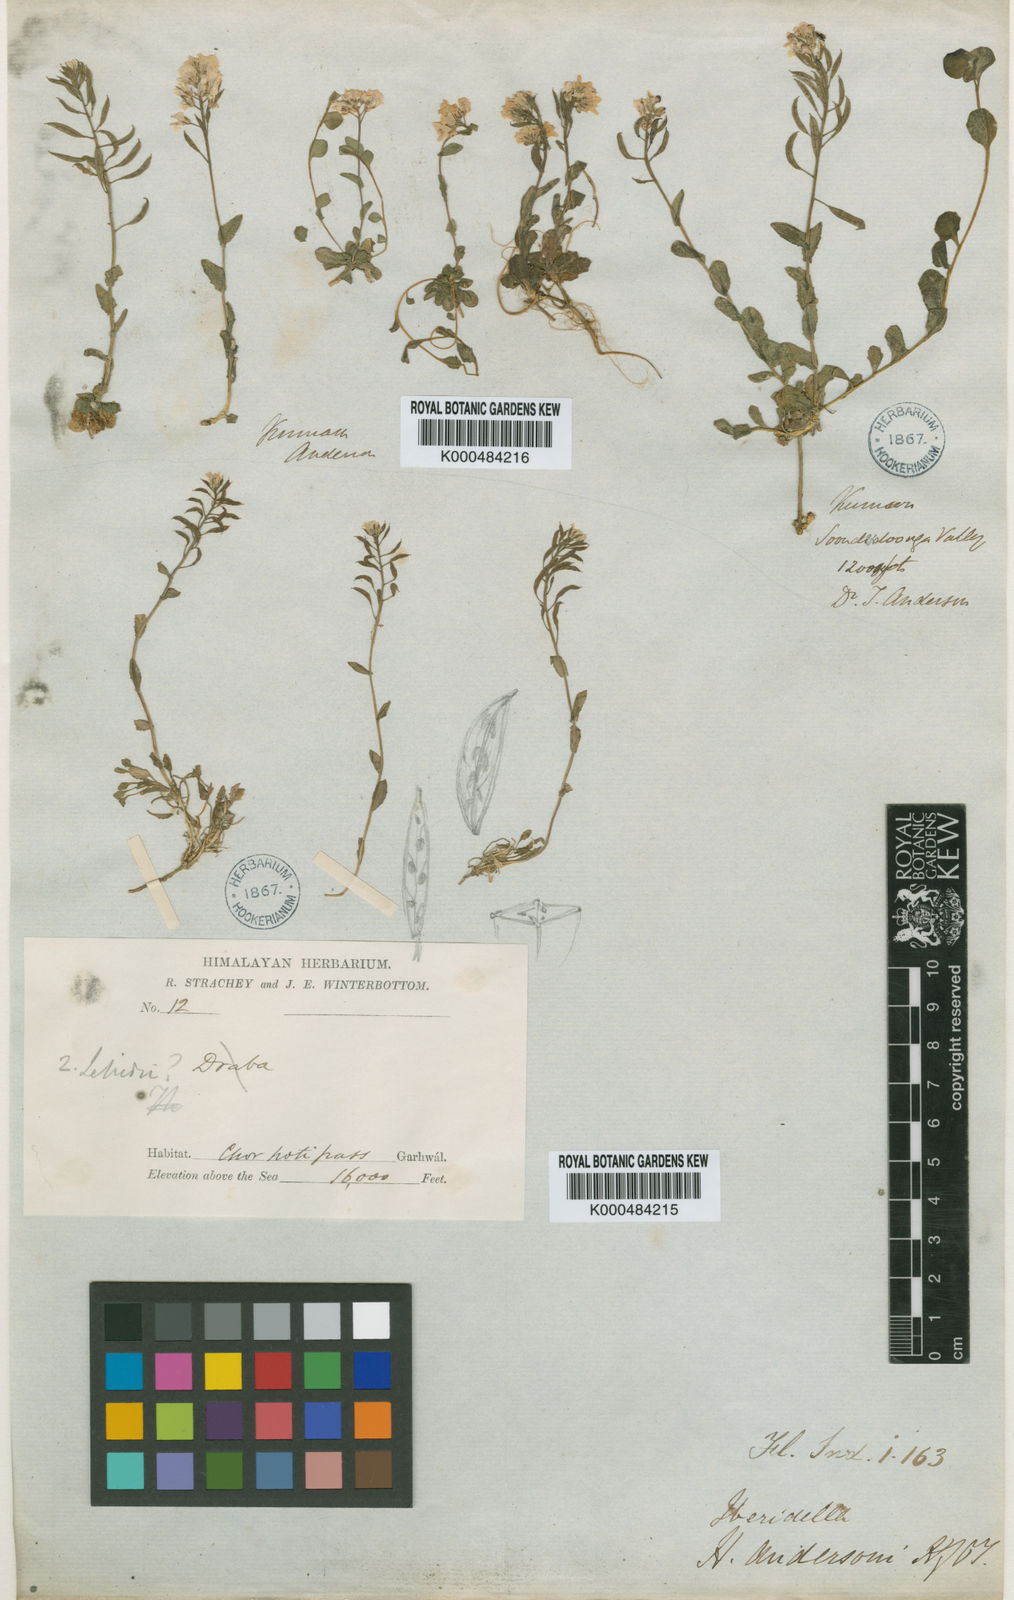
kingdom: Plantae
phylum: Tracheophyta
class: Magnoliopsida
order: Brassicales
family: Brassicaceae
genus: Aethionema
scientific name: Aethionema
